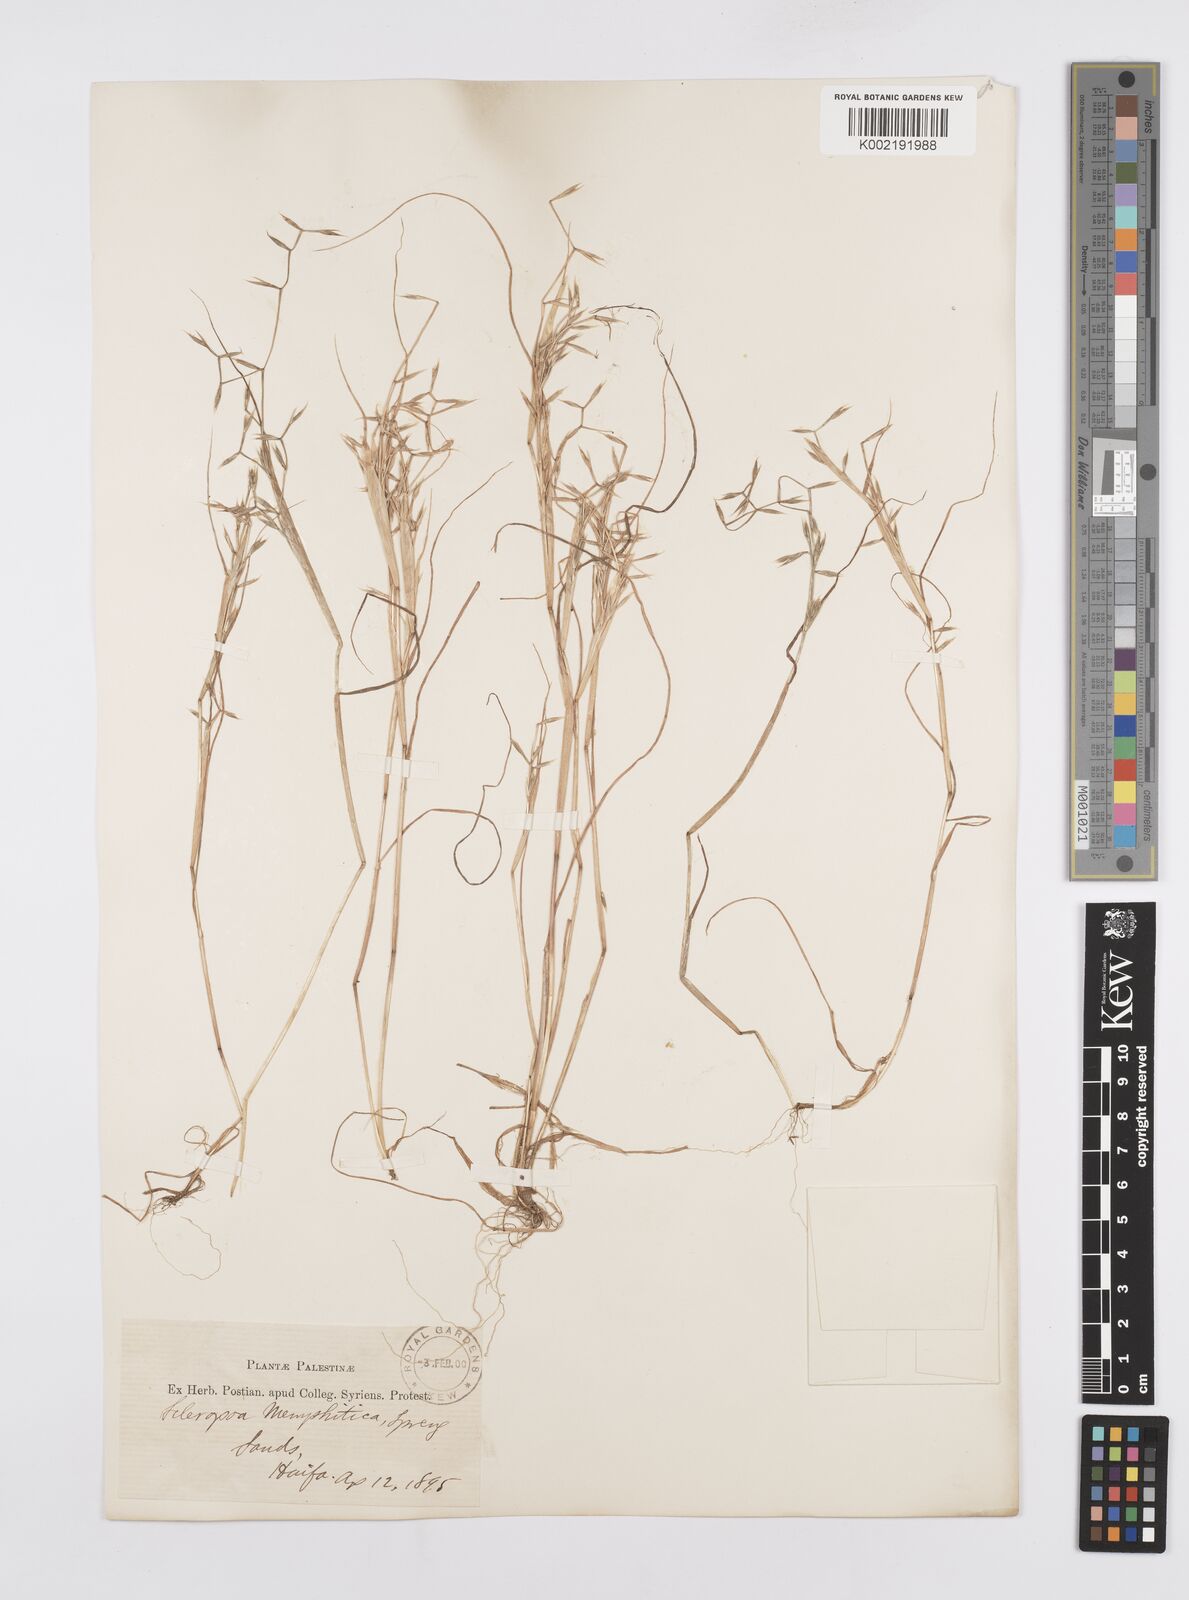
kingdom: Plantae
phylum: Tracheophyta
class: Liliopsida
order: Poales
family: Poaceae
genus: Cutandia
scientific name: Cutandia memphitica
